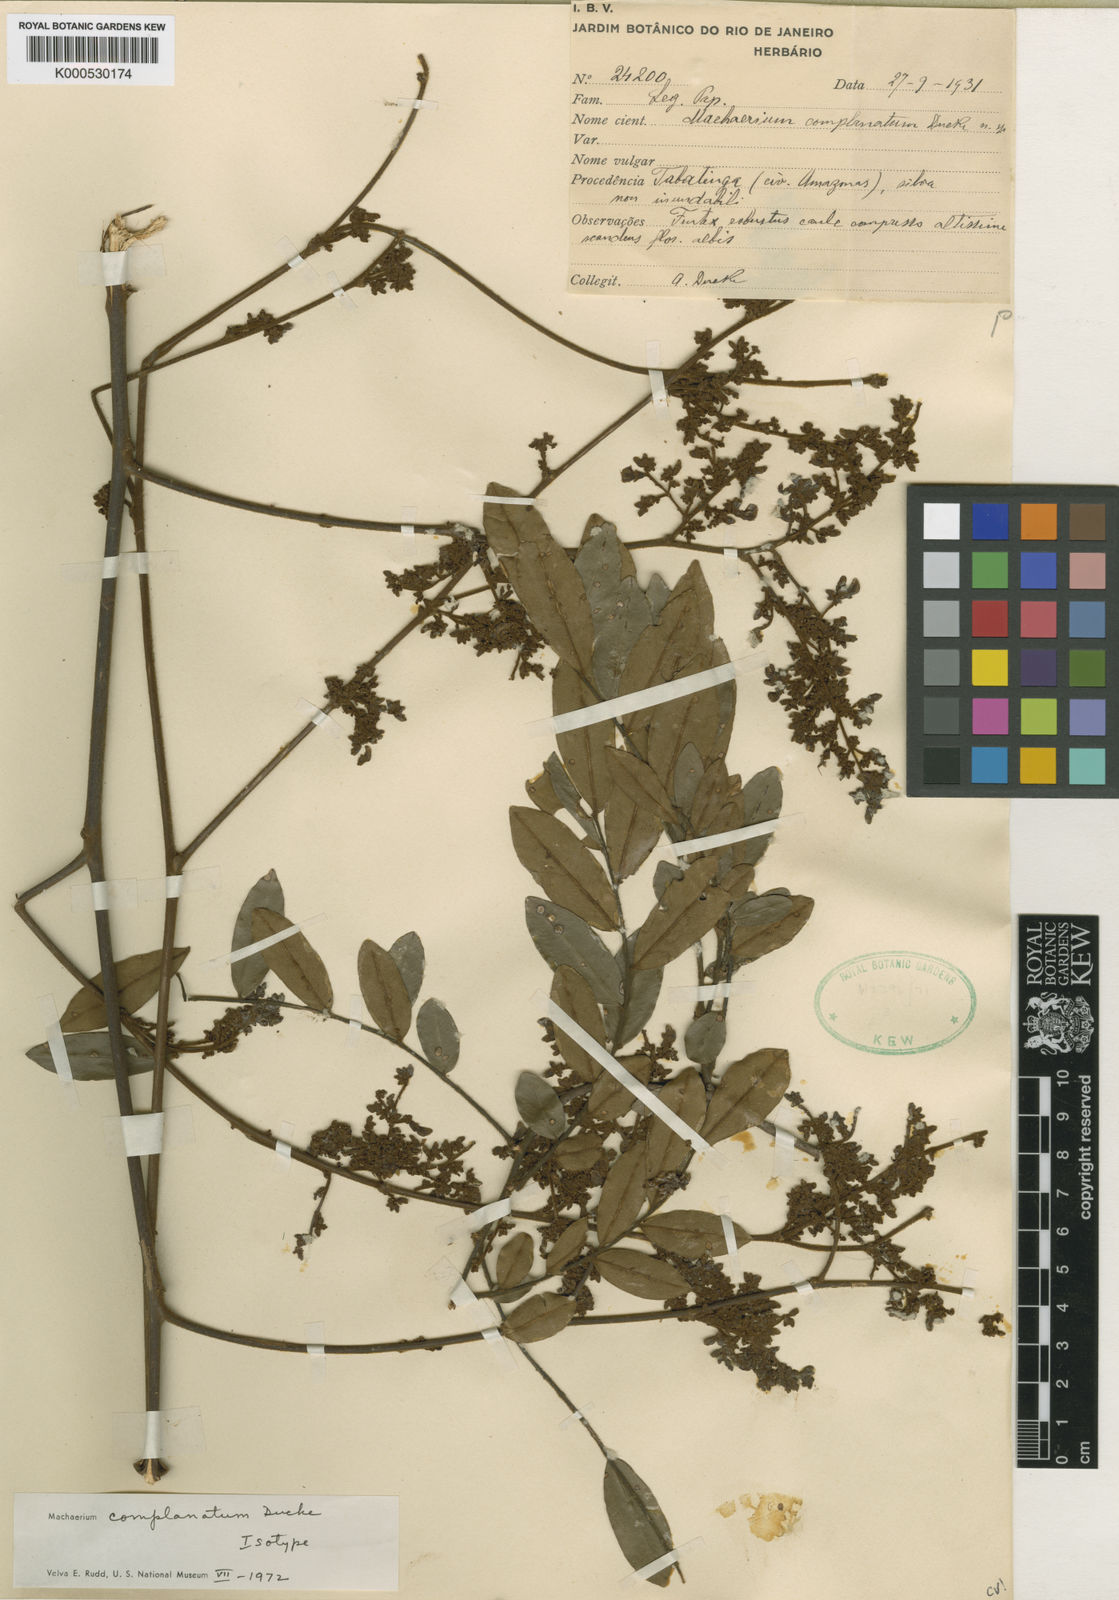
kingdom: Plantae
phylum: Tracheophyta
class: Magnoliopsida
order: Fabales
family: Fabaceae
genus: Dalbergia
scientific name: Dalbergia glandulosa
